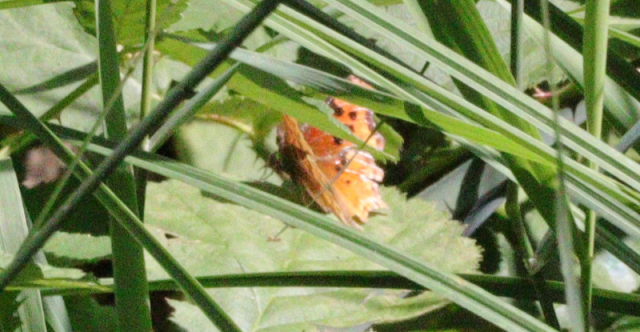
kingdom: Animalia
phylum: Arthropoda
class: Insecta
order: Lepidoptera
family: Nymphalidae
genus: Polygonia
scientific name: Polygonia satyrus
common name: Satyr Comma
